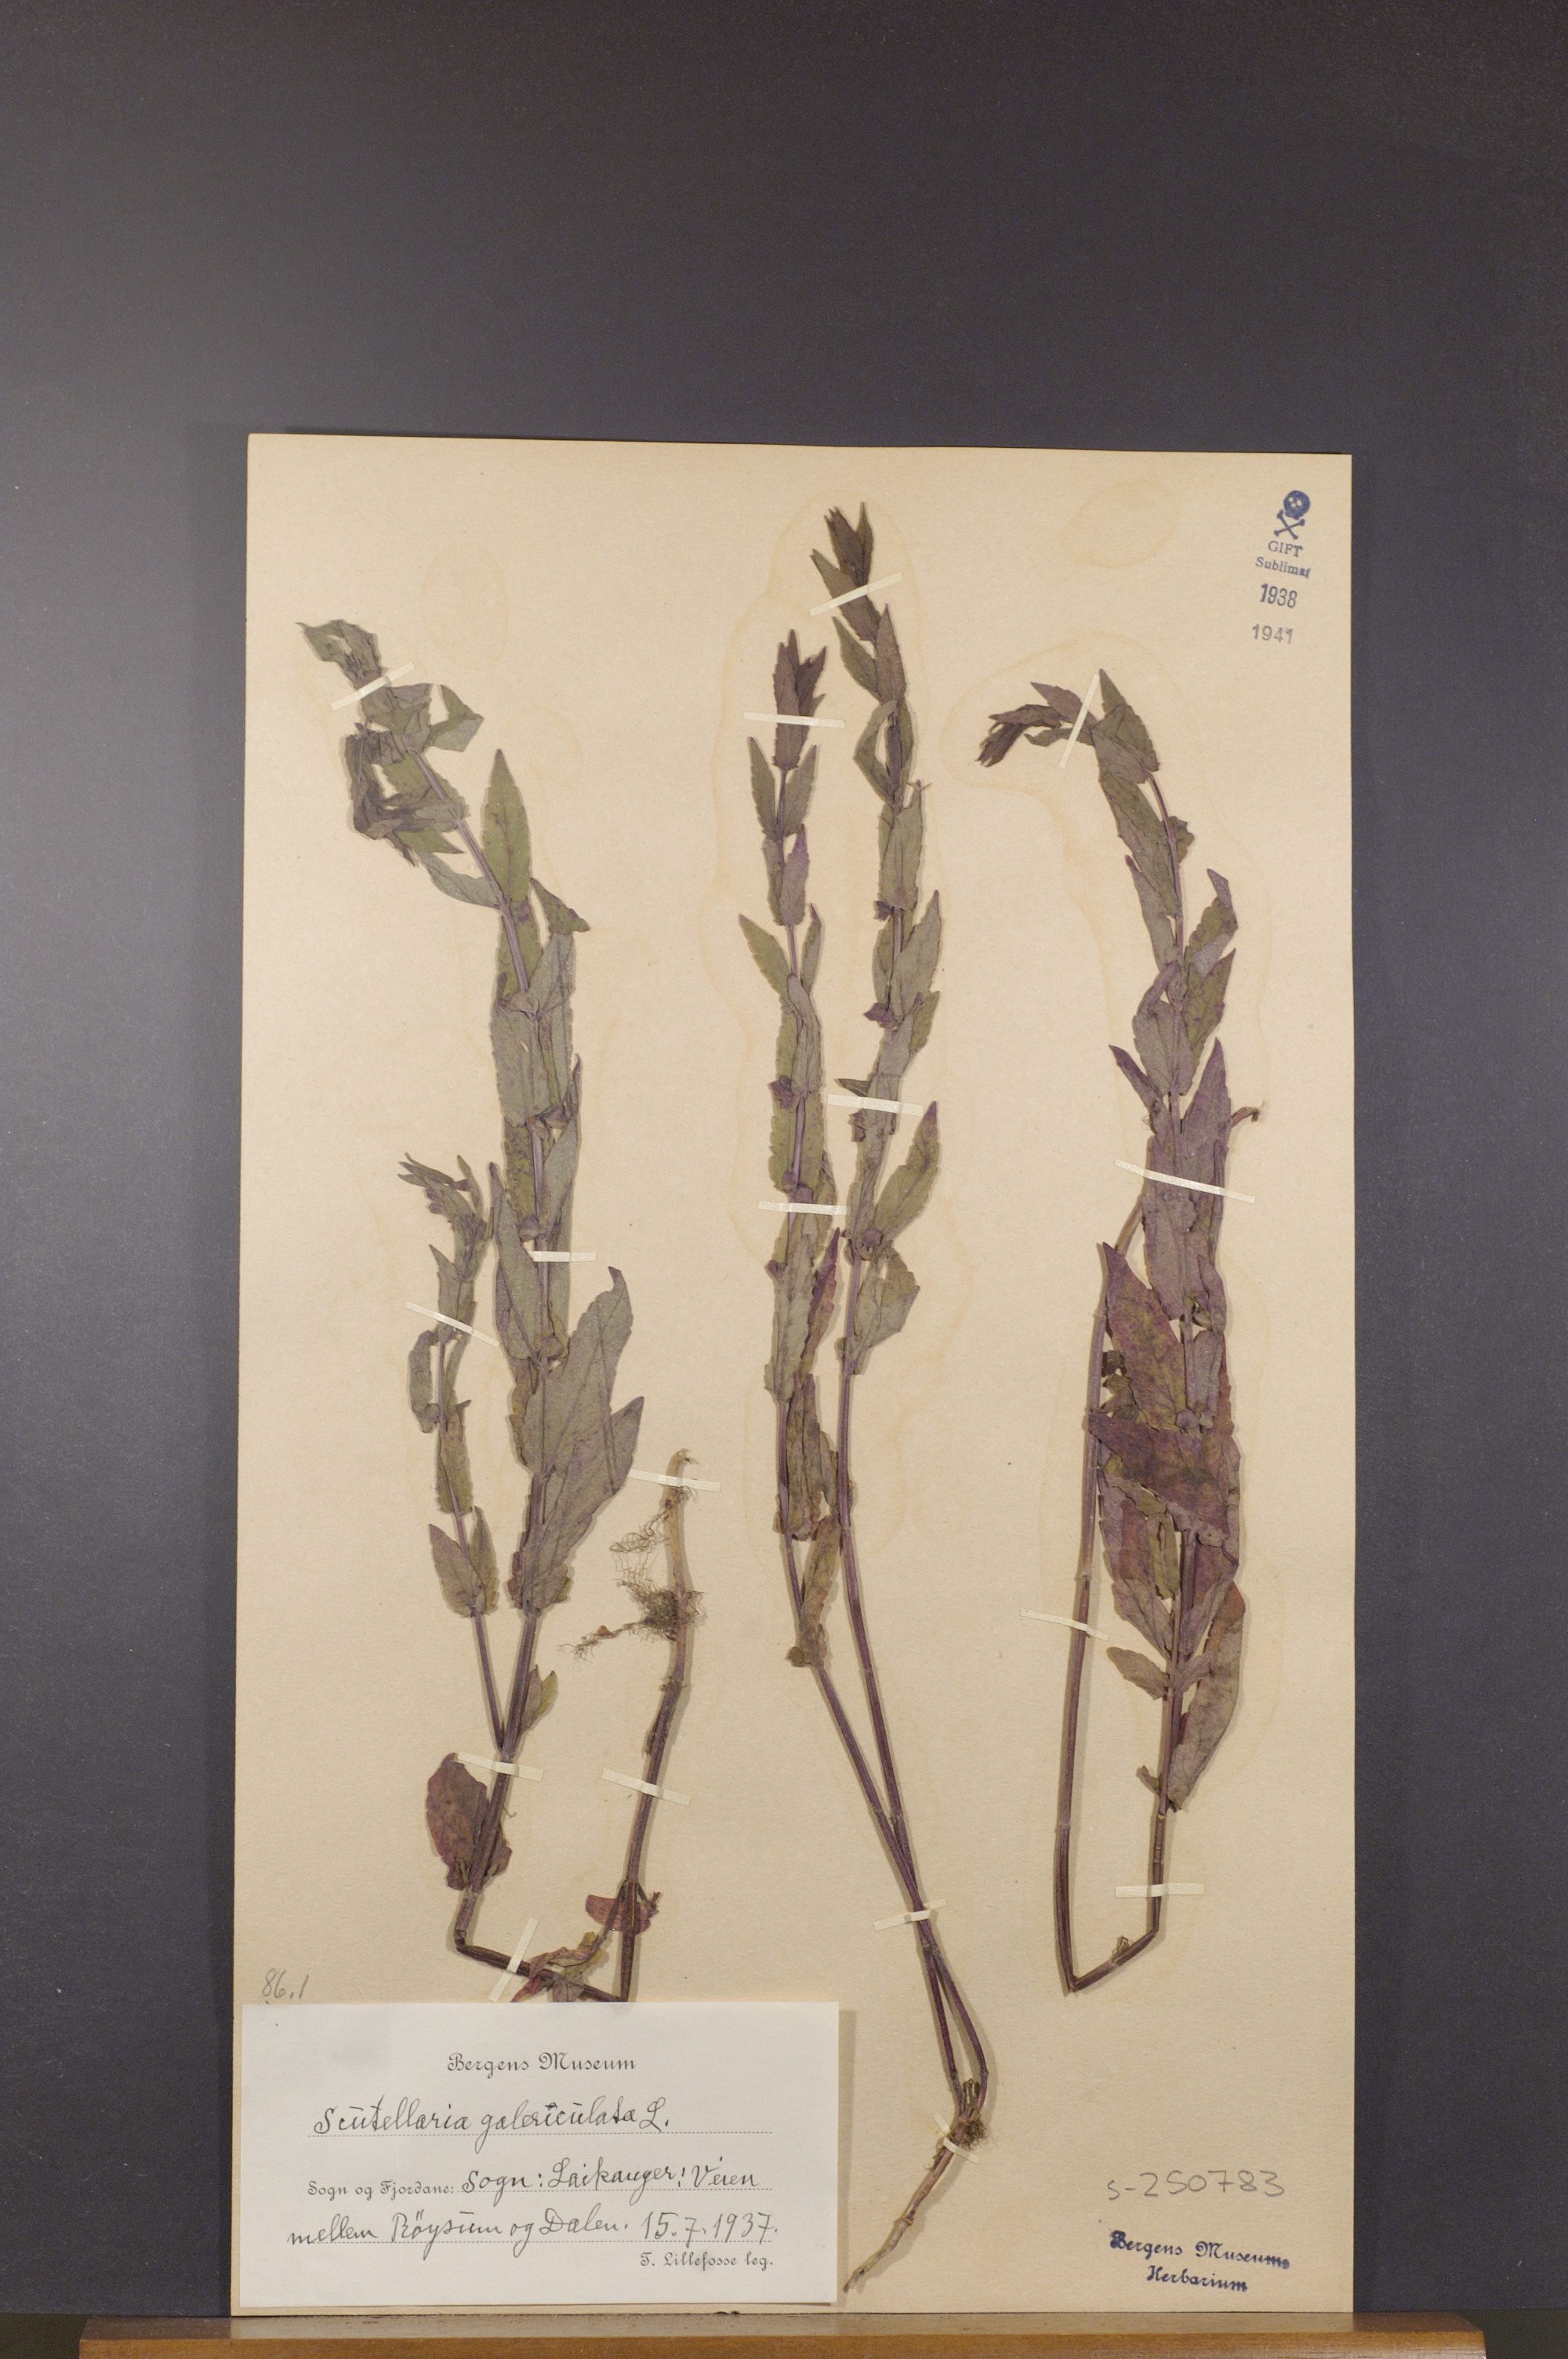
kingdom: Plantae
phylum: Tracheophyta
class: Magnoliopsida
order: Lamiales
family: Lamiaceae
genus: Scutellaria
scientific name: Scutellaria galericulata
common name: Skullcap
